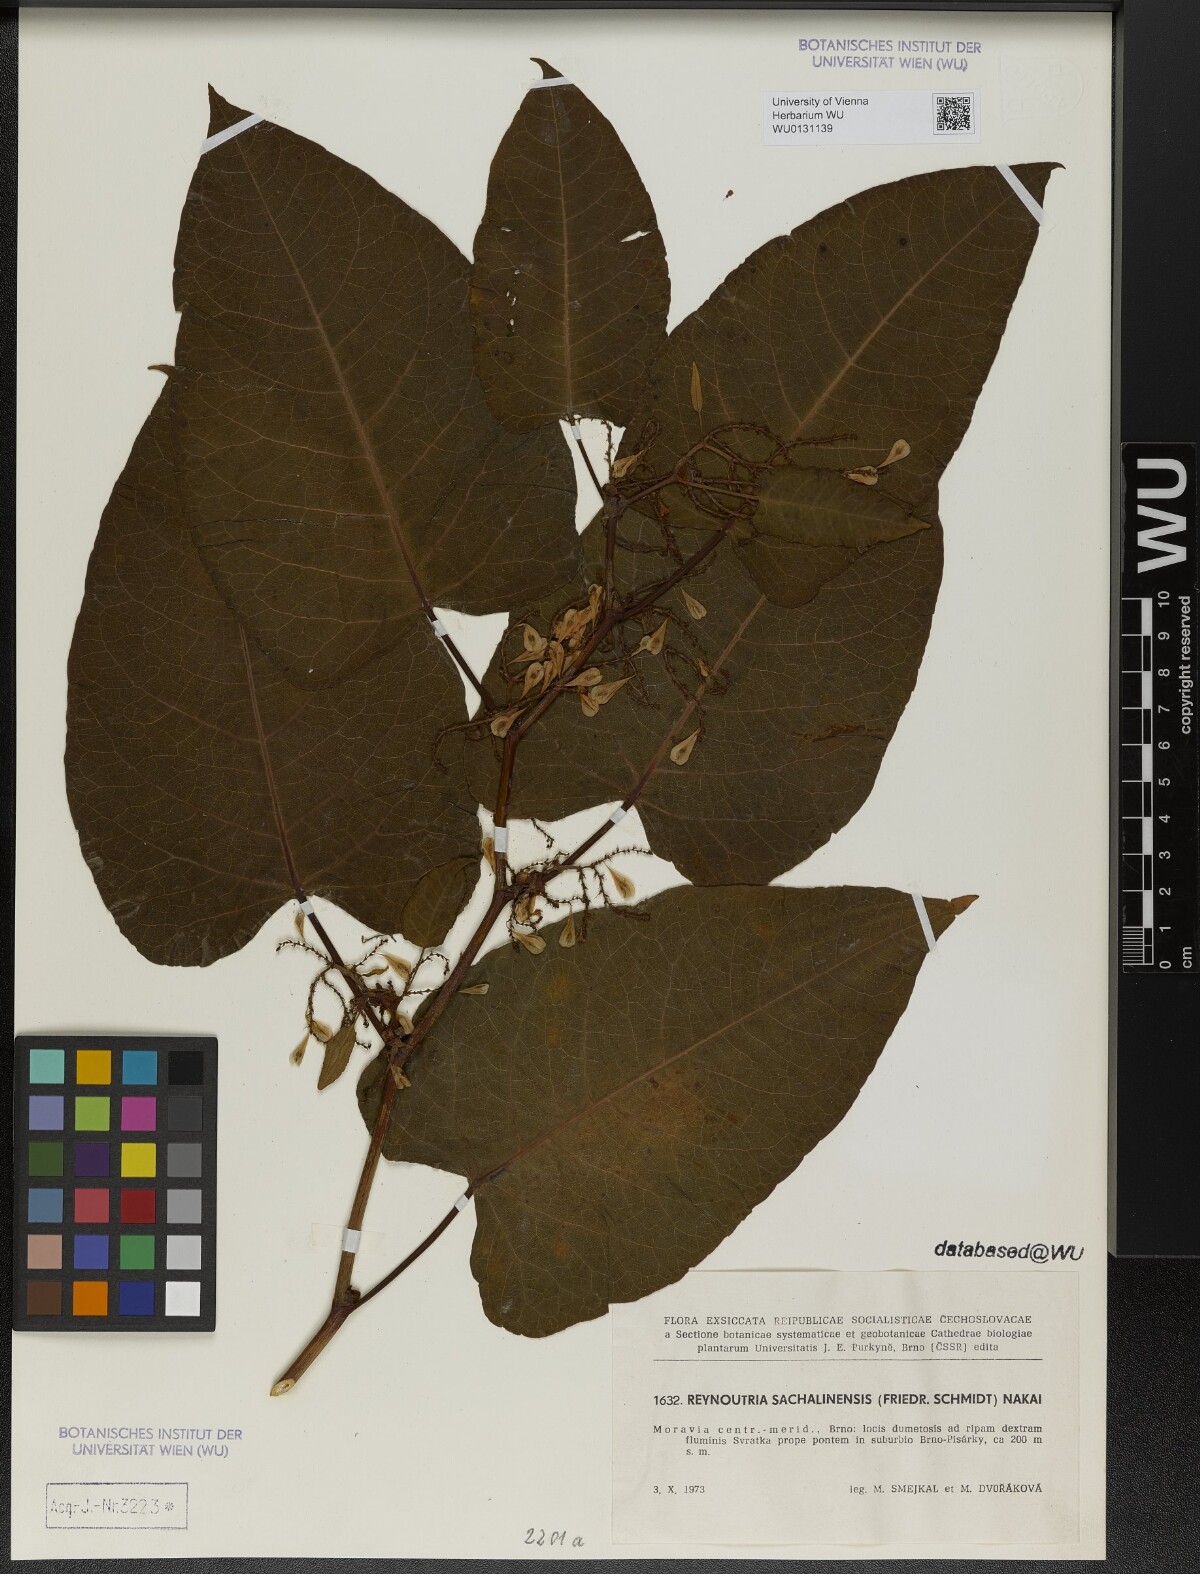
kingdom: Plantae
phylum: Tracheophyta
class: Magnoliopsida
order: Caryophyllales
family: Polygonaceae
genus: Reynoutria
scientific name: Reynoutria sachalinensis
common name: Giant knotweed
